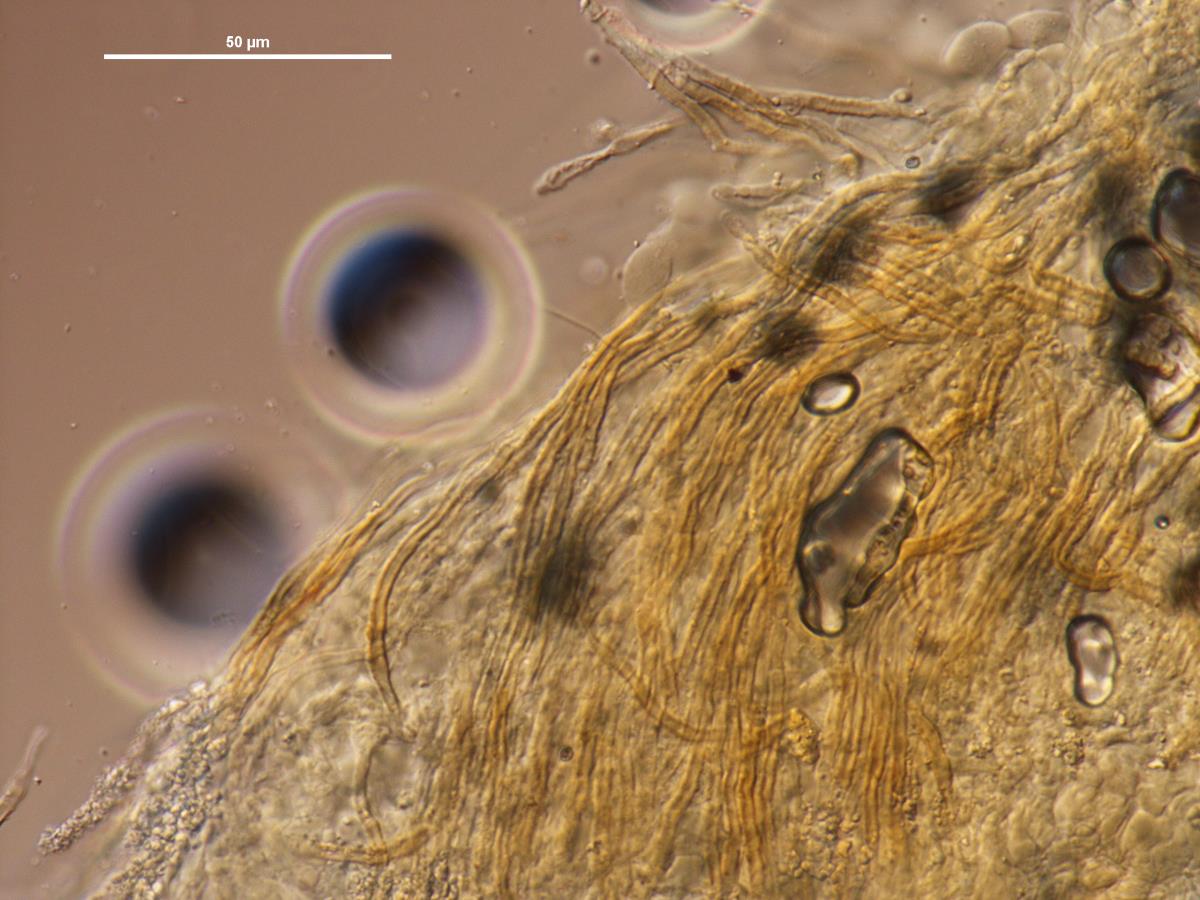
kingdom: Fungi
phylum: Basidiomycota
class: Agaricomycetes
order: Agaricales
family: Marasmiaceae
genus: Rectipilus
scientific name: Rectipilus sulphureus
